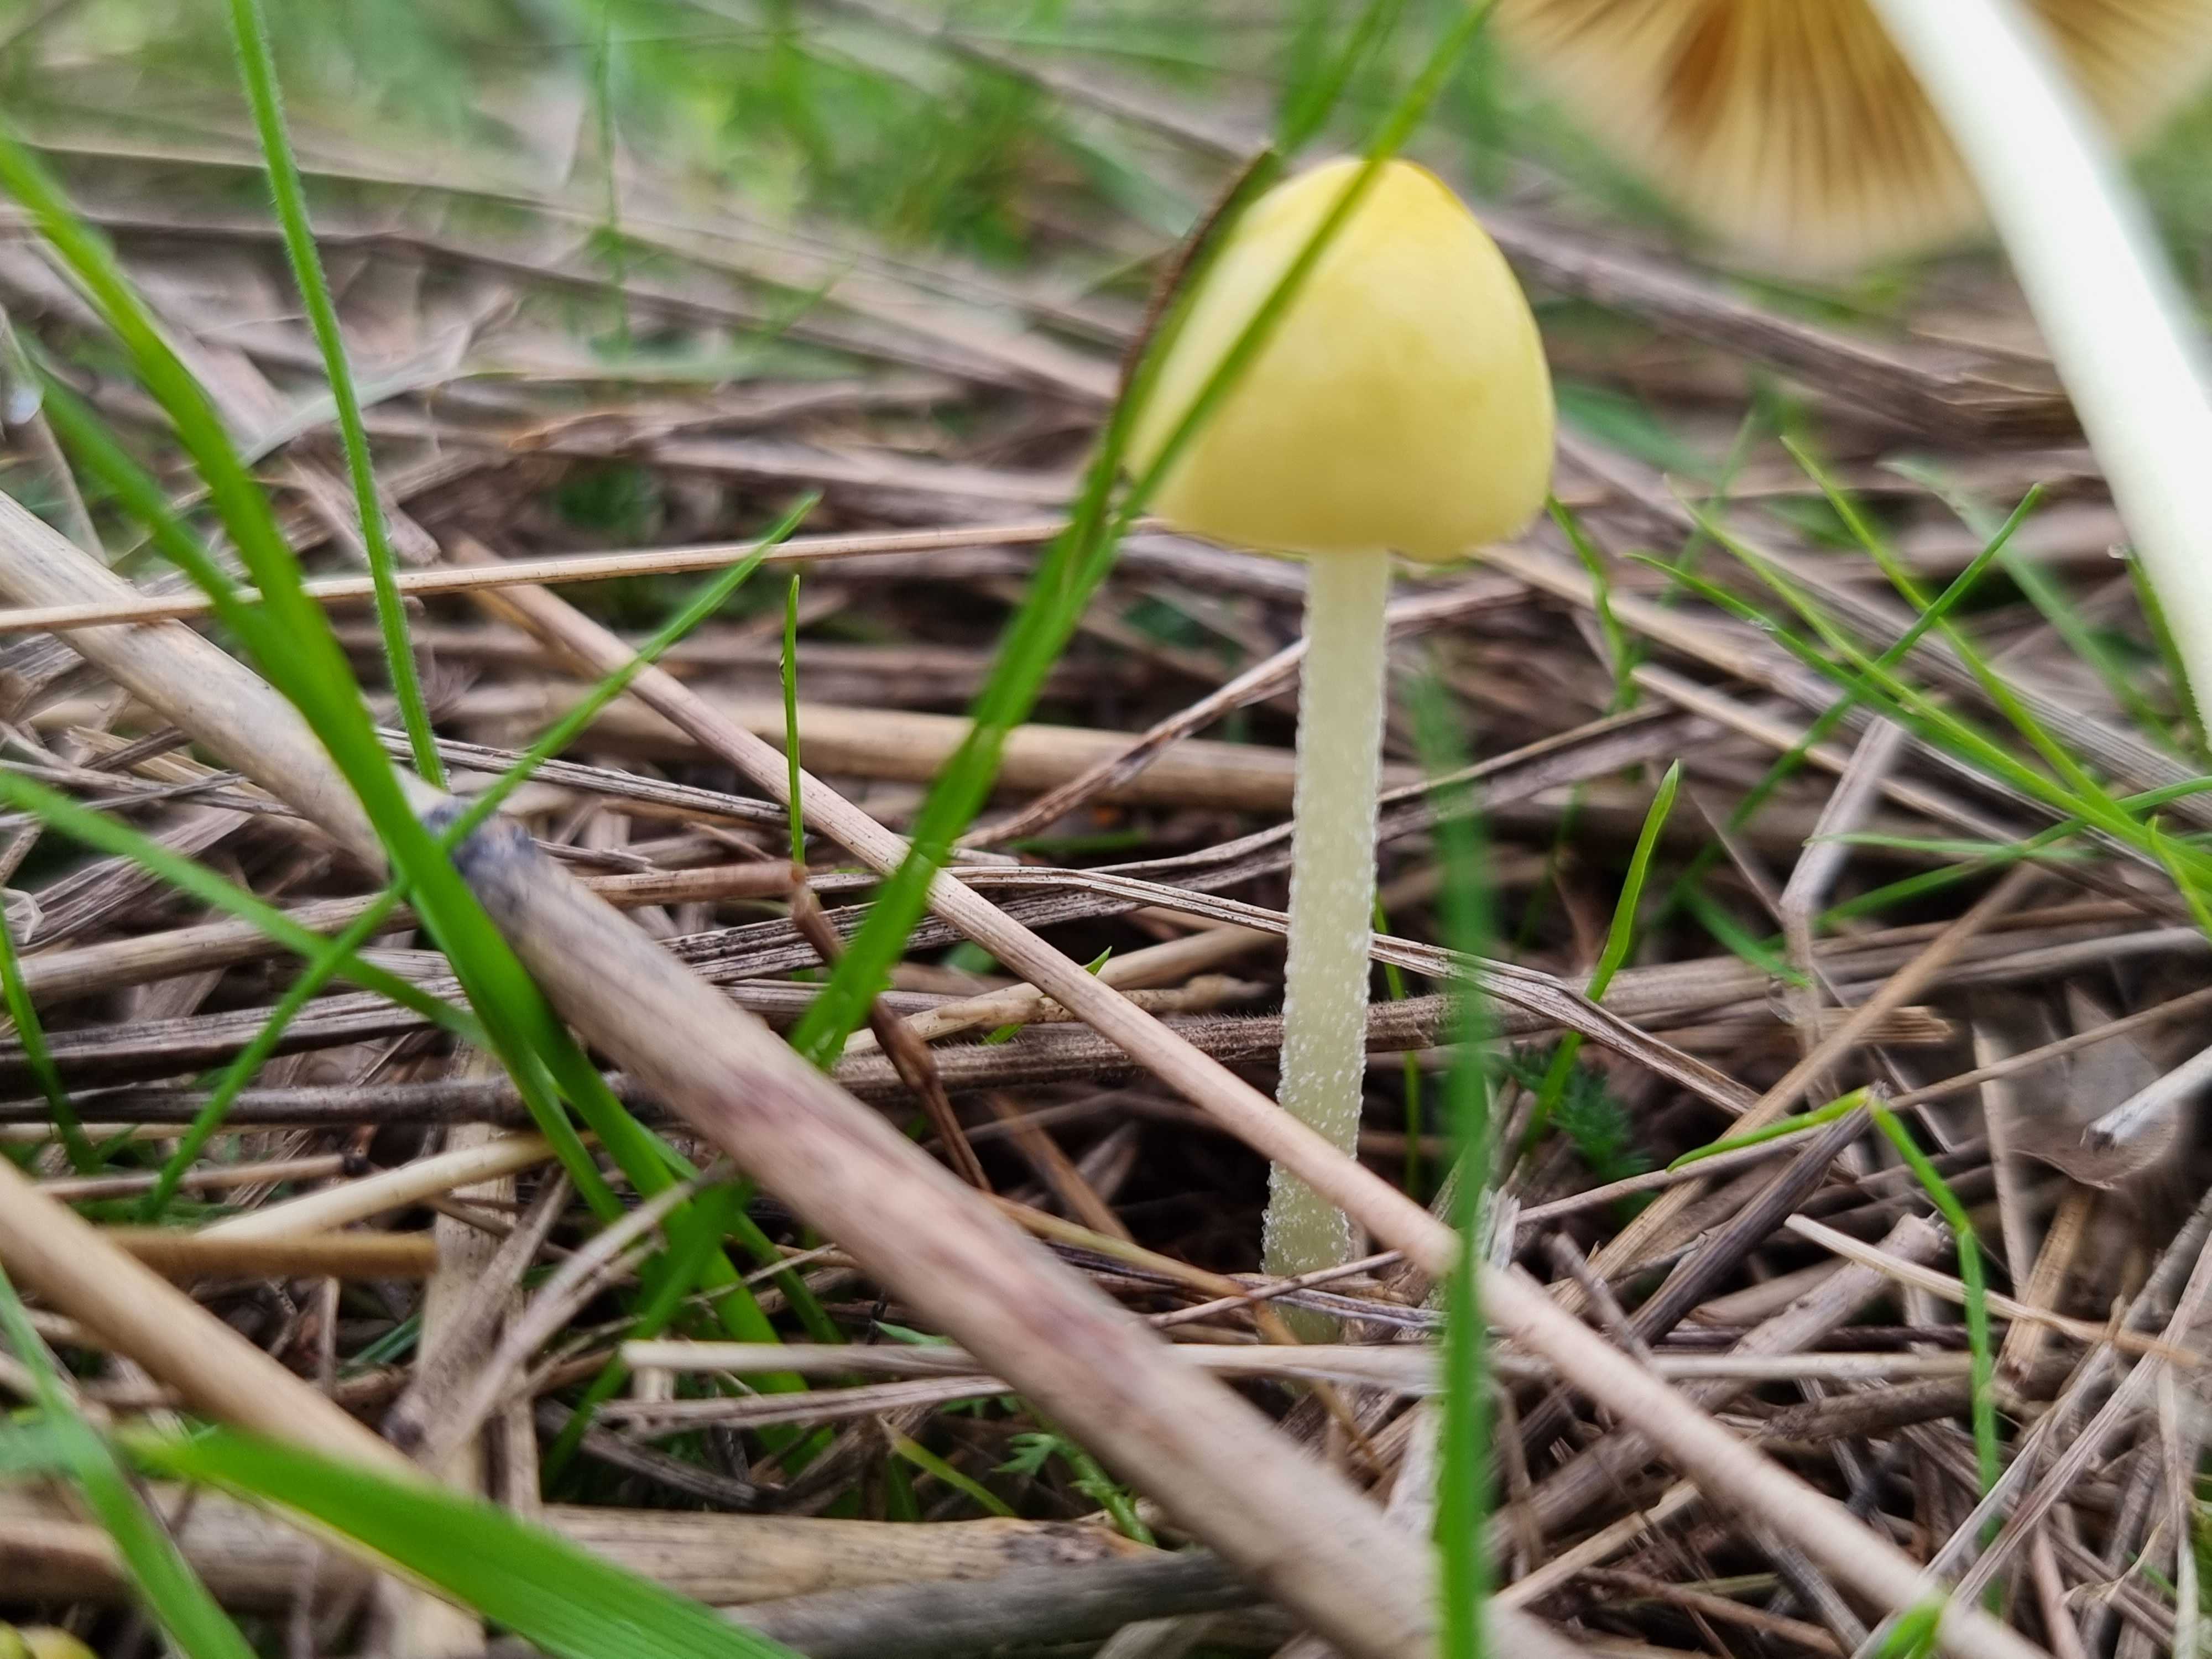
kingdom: Fungi
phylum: Basidiomycota
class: Agaricomycetes
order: Agaricales
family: Bolbitiaceae
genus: Bolbitius
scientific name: Bolbitius titubans
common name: almindelig gulhat
